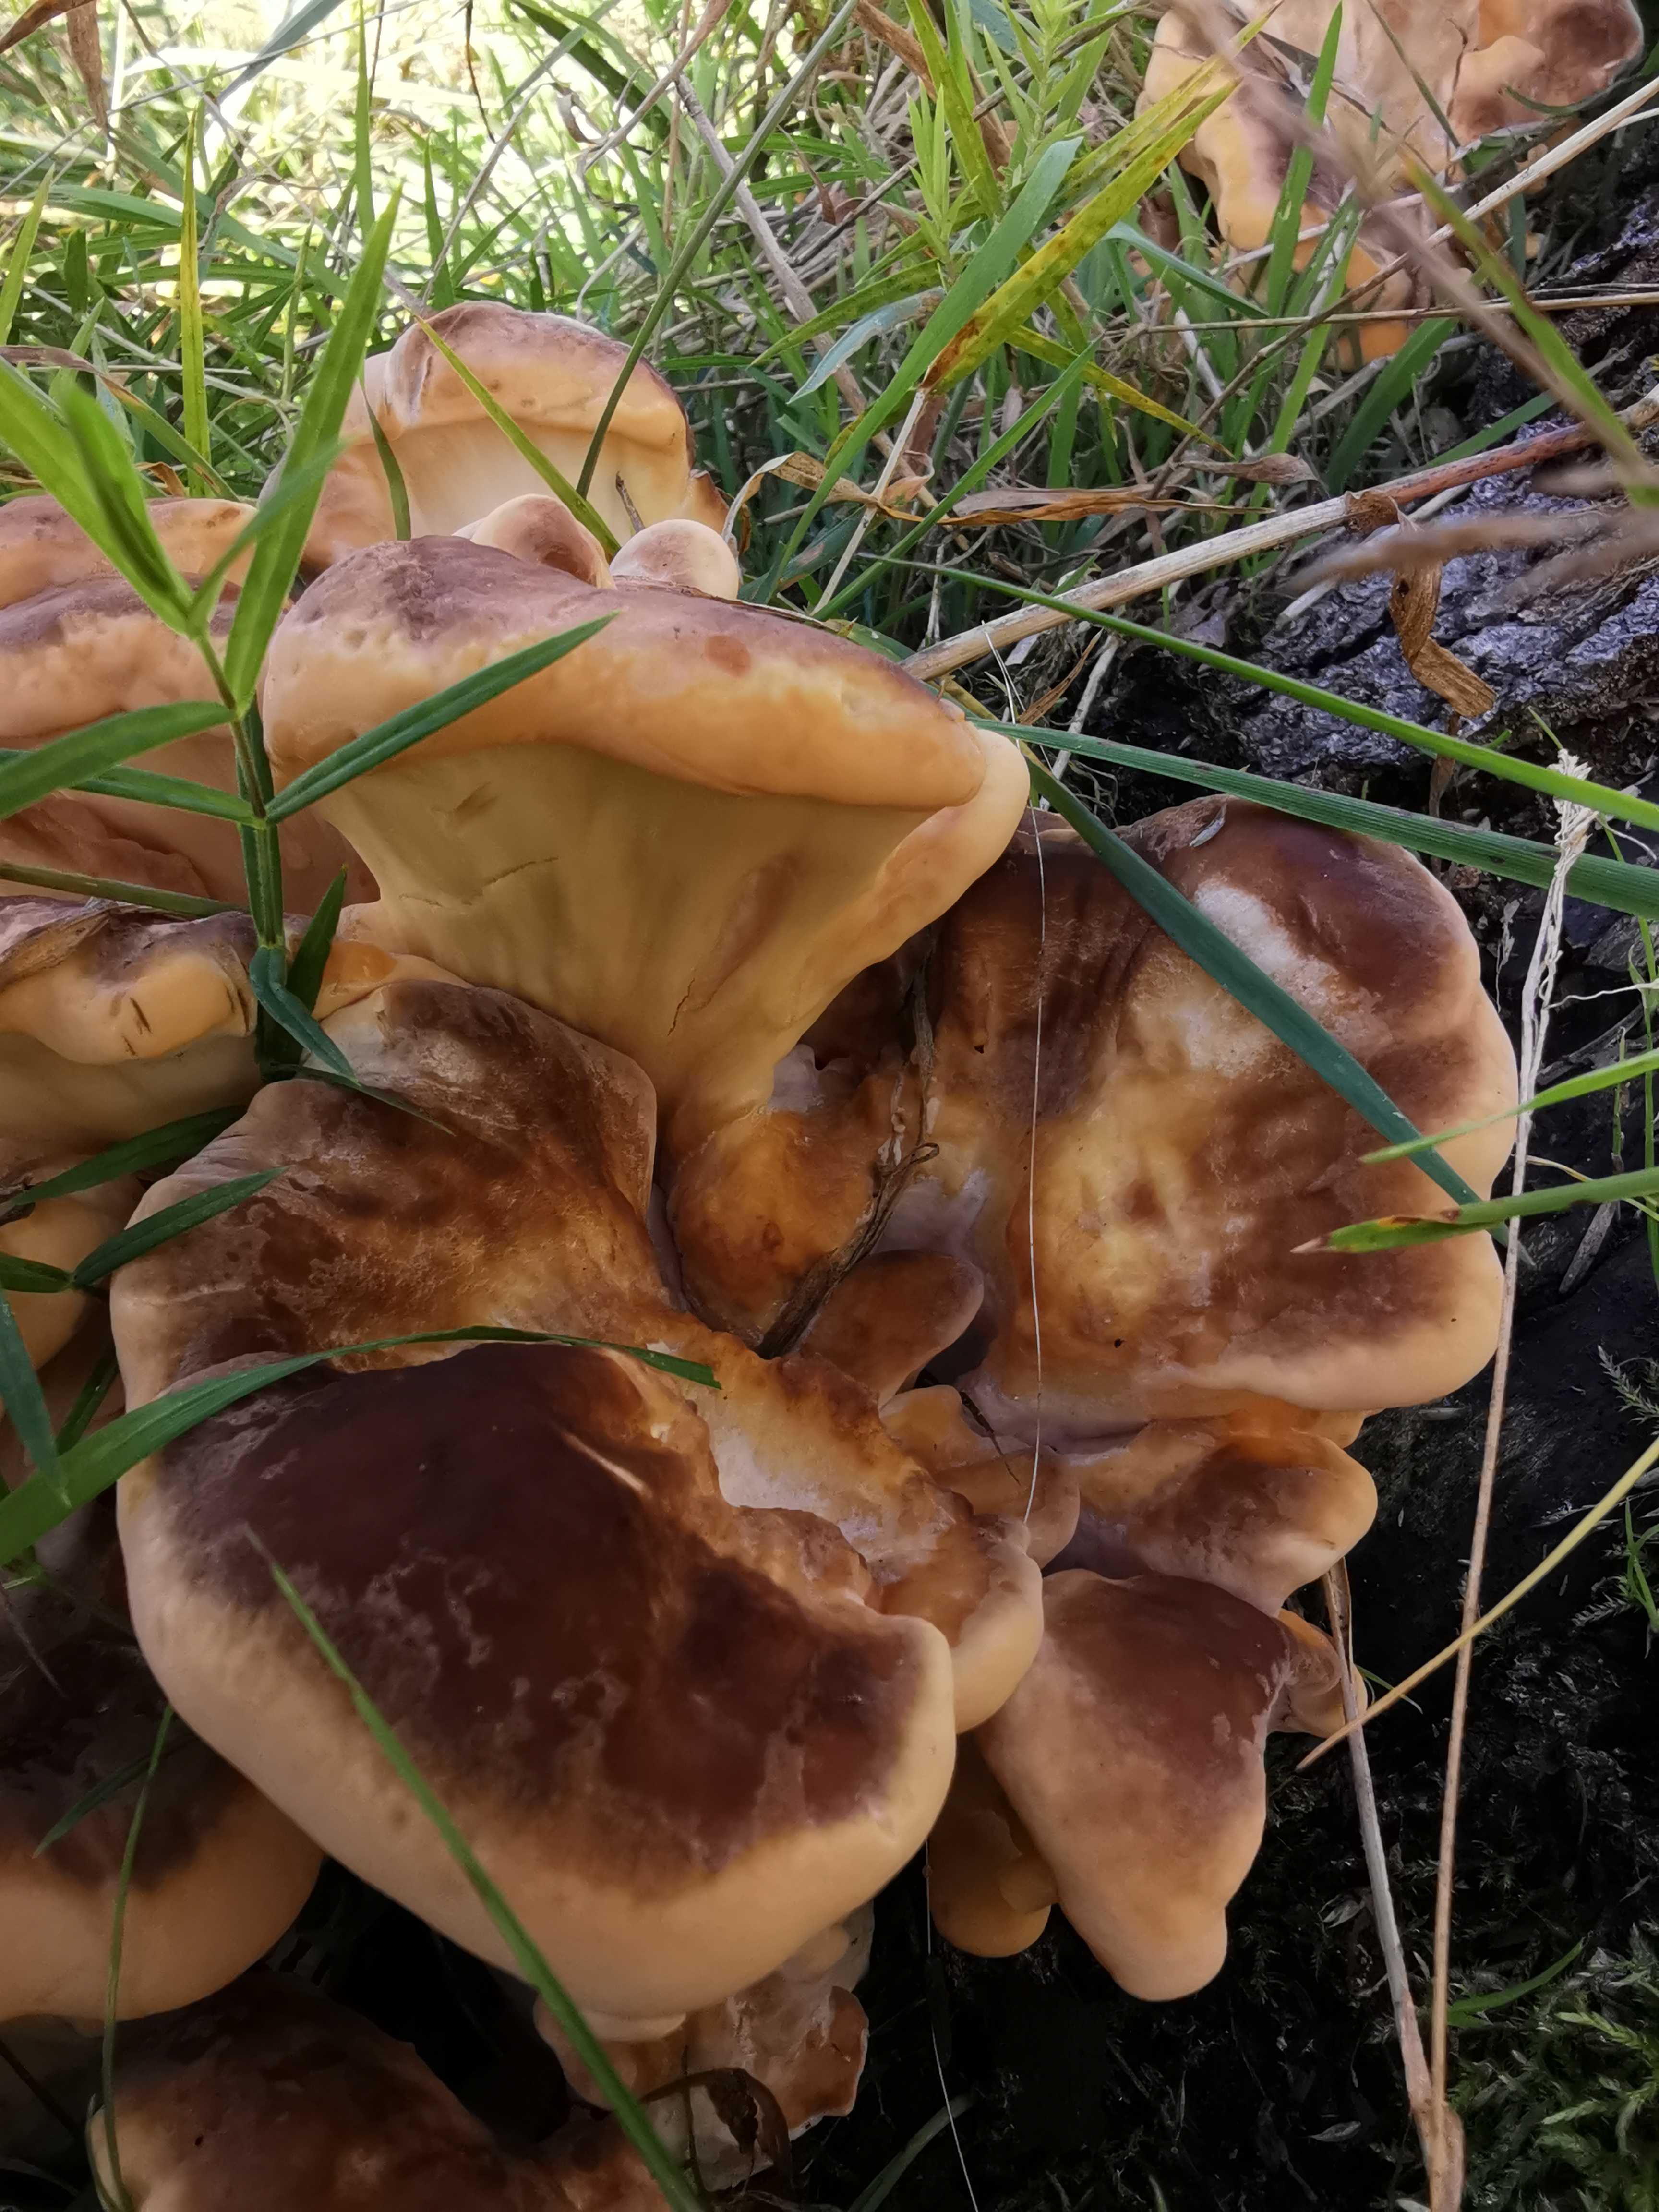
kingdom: Fungi
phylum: Basidiomycota
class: Agaricomycetes
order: Polyporales
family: Meripilaceae
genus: Meripilus
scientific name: Meripilus giganteus
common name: kæmpeporesvamp
